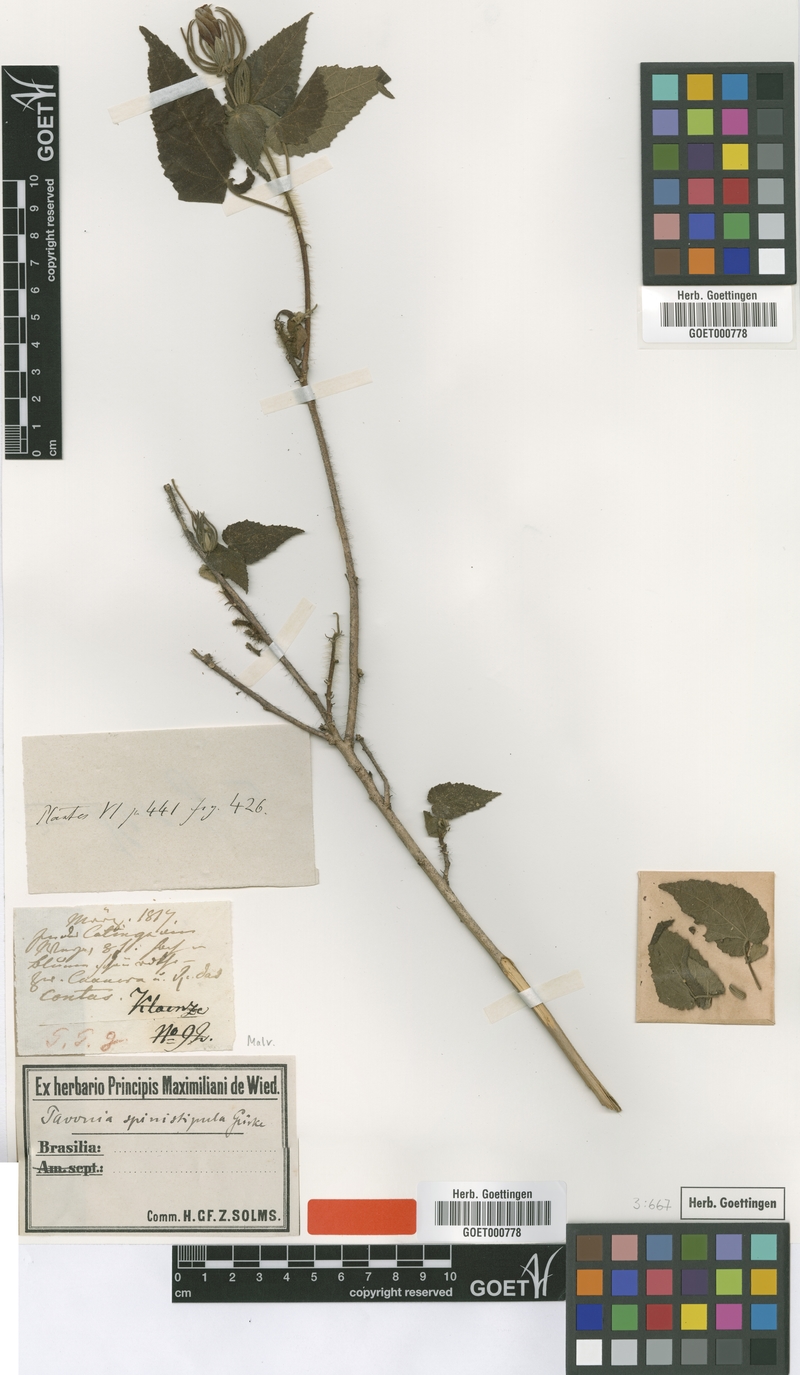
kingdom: Plantae
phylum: Tracheophyta
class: Magnoliopsida
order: Malvales
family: Malvaceae
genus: Pavonia
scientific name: Pavonia spinistipula
